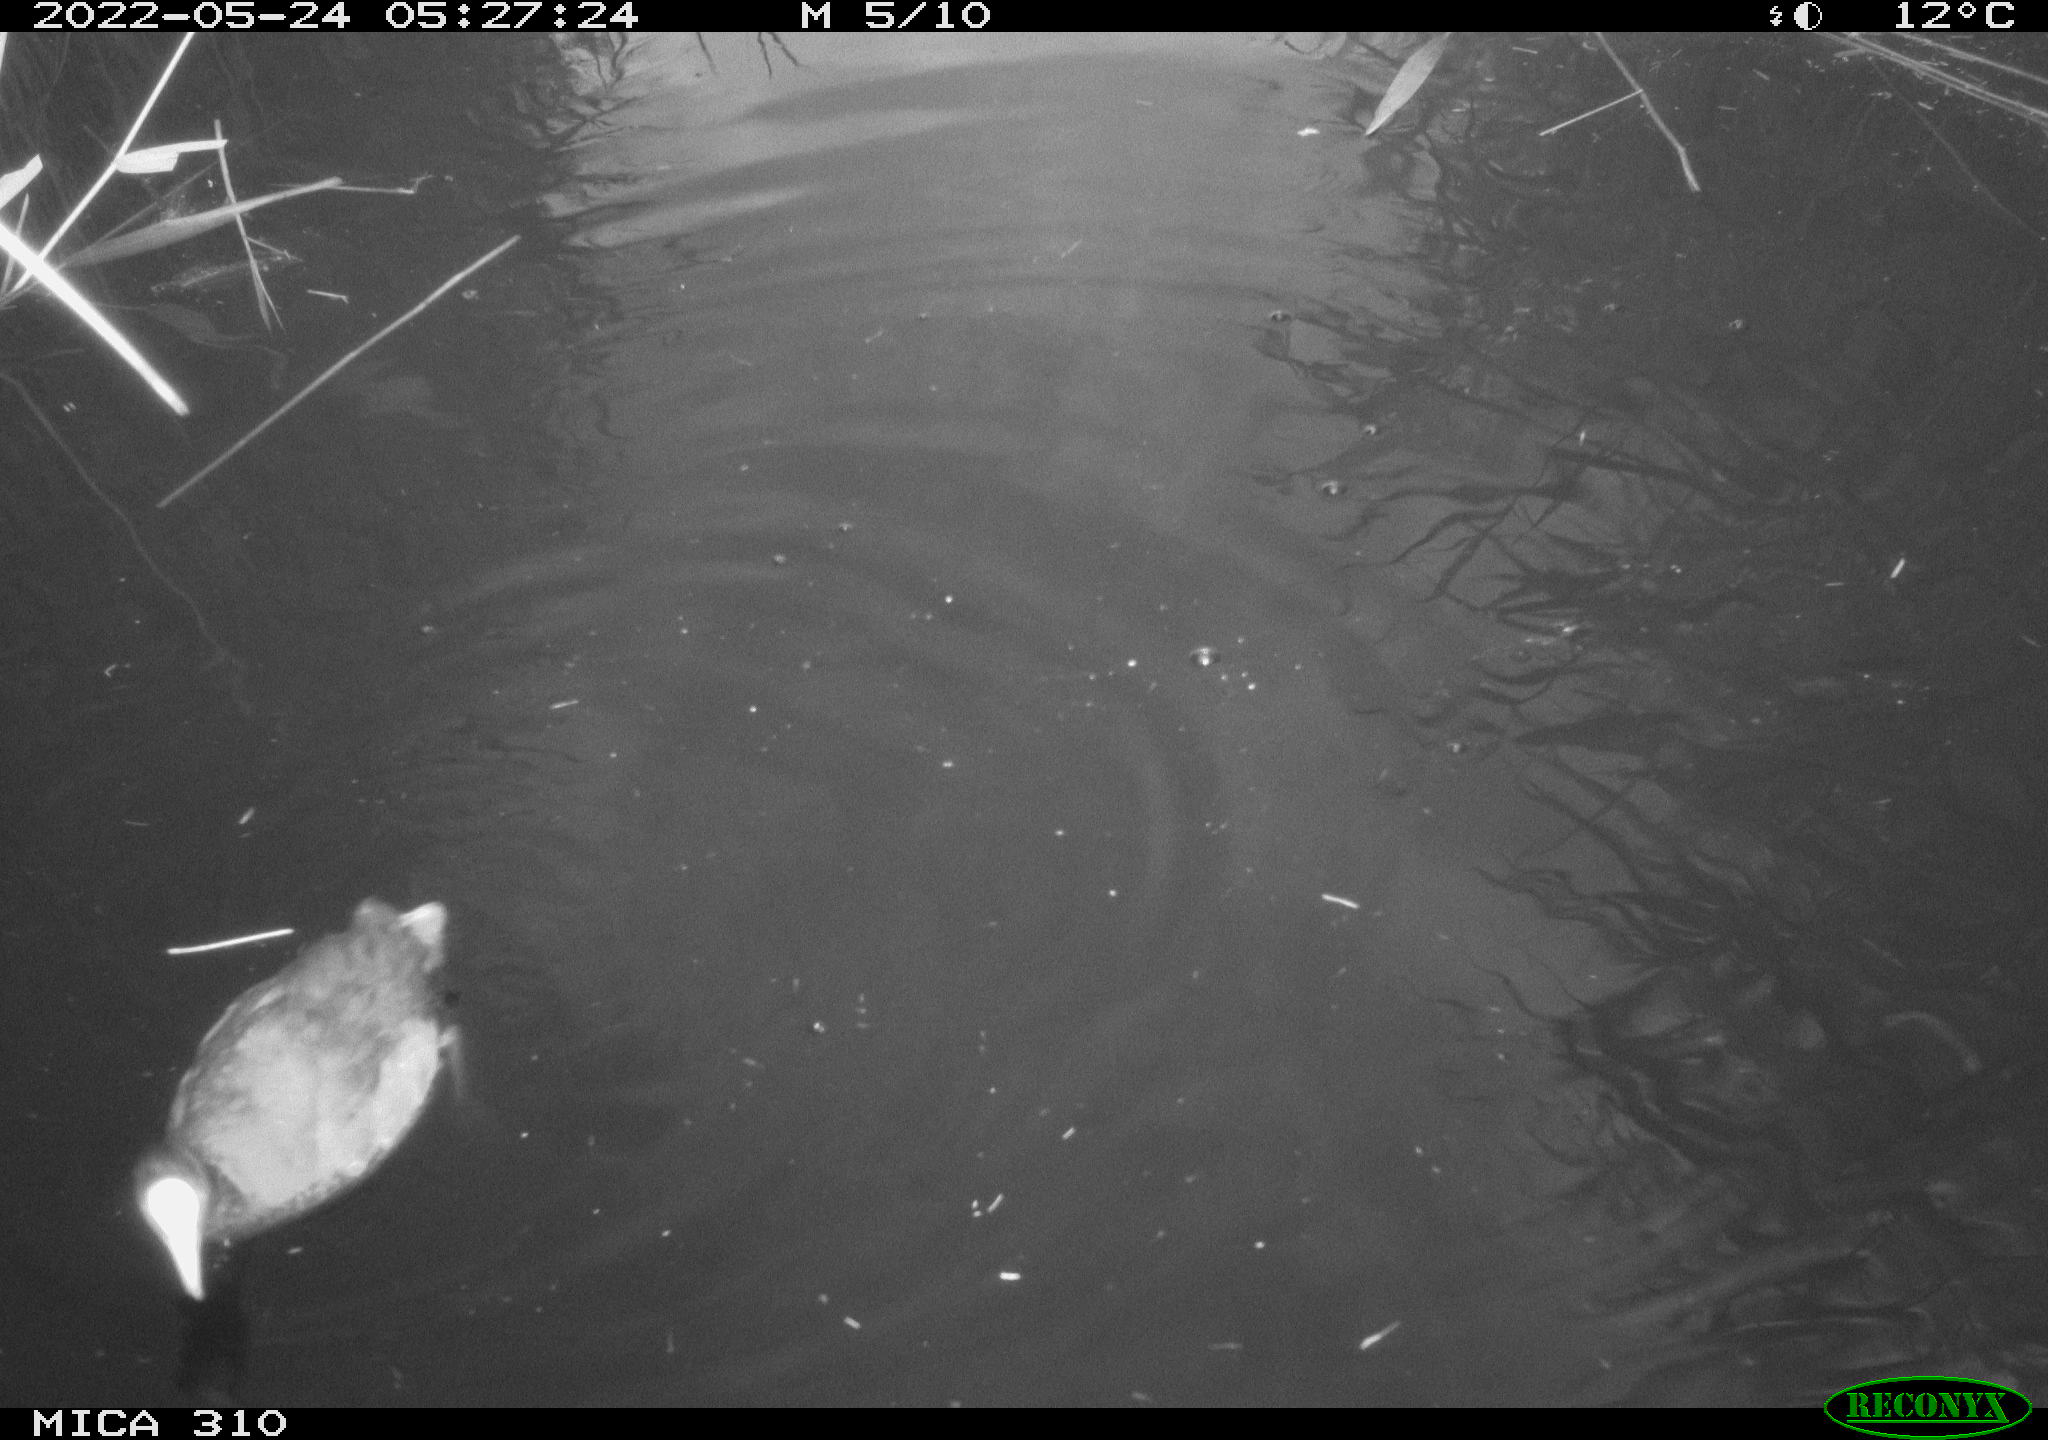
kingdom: Animalia
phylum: Chordata
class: Aves
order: Gruiformes
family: Rallidae
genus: Fulica
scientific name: Fulica atra
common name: Eurasian coot
